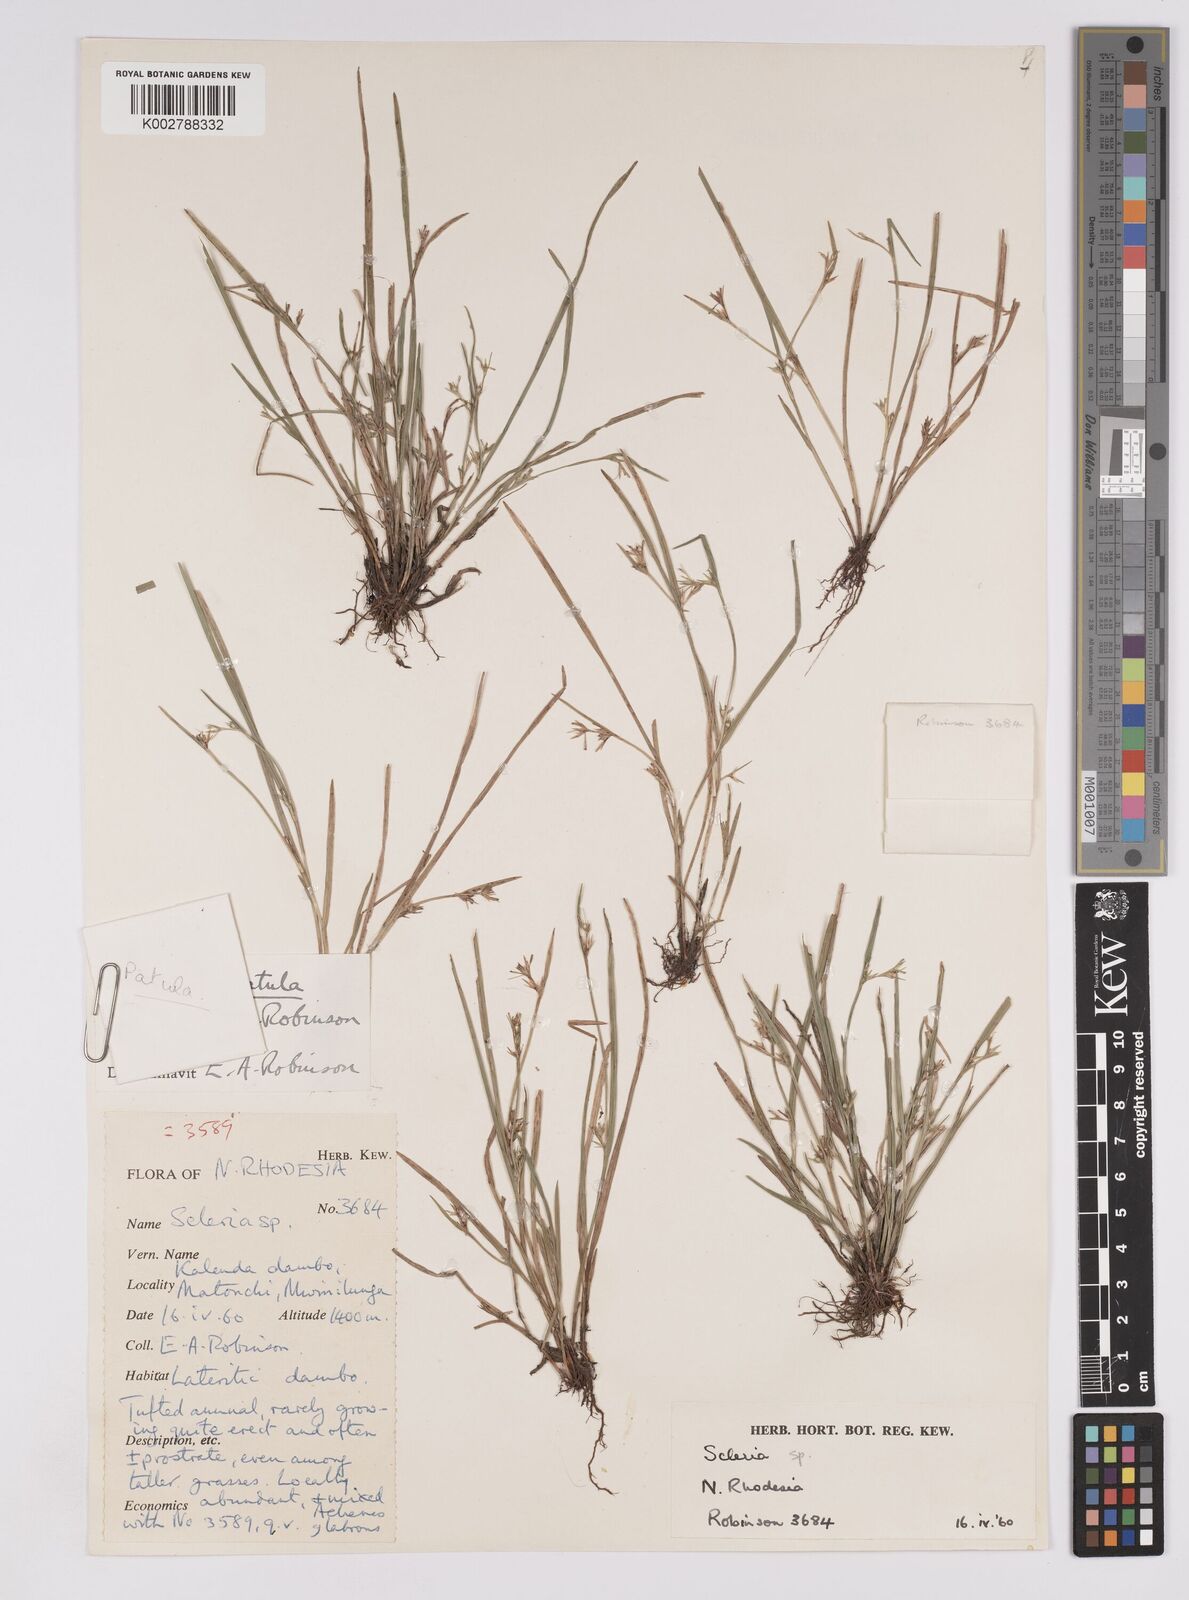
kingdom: Plantae
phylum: Tracheophyta
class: Liliopsida
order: Poales
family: Cyperaceae
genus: Scleria
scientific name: Scleria patula
